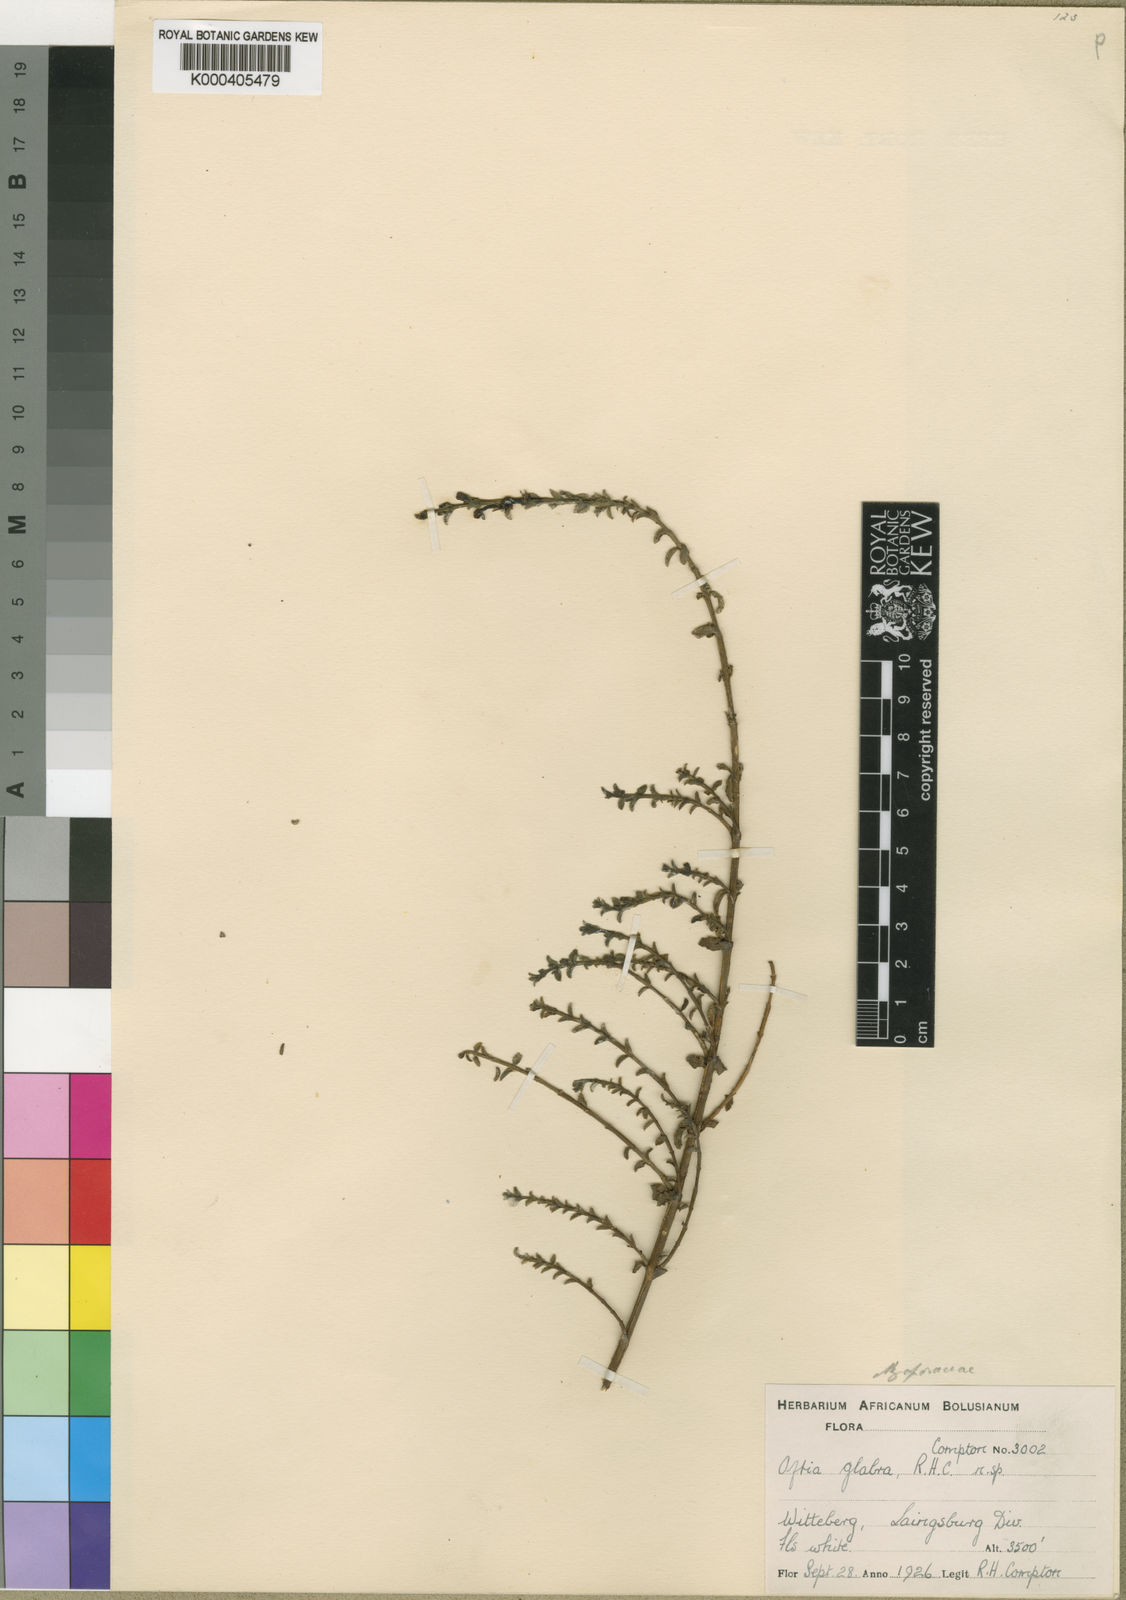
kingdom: Plantae
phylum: Tracheophyta
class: Magnoliopsida
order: Lamiales
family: Scrophulariaceae
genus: Oftia
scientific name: Oftia glabra
